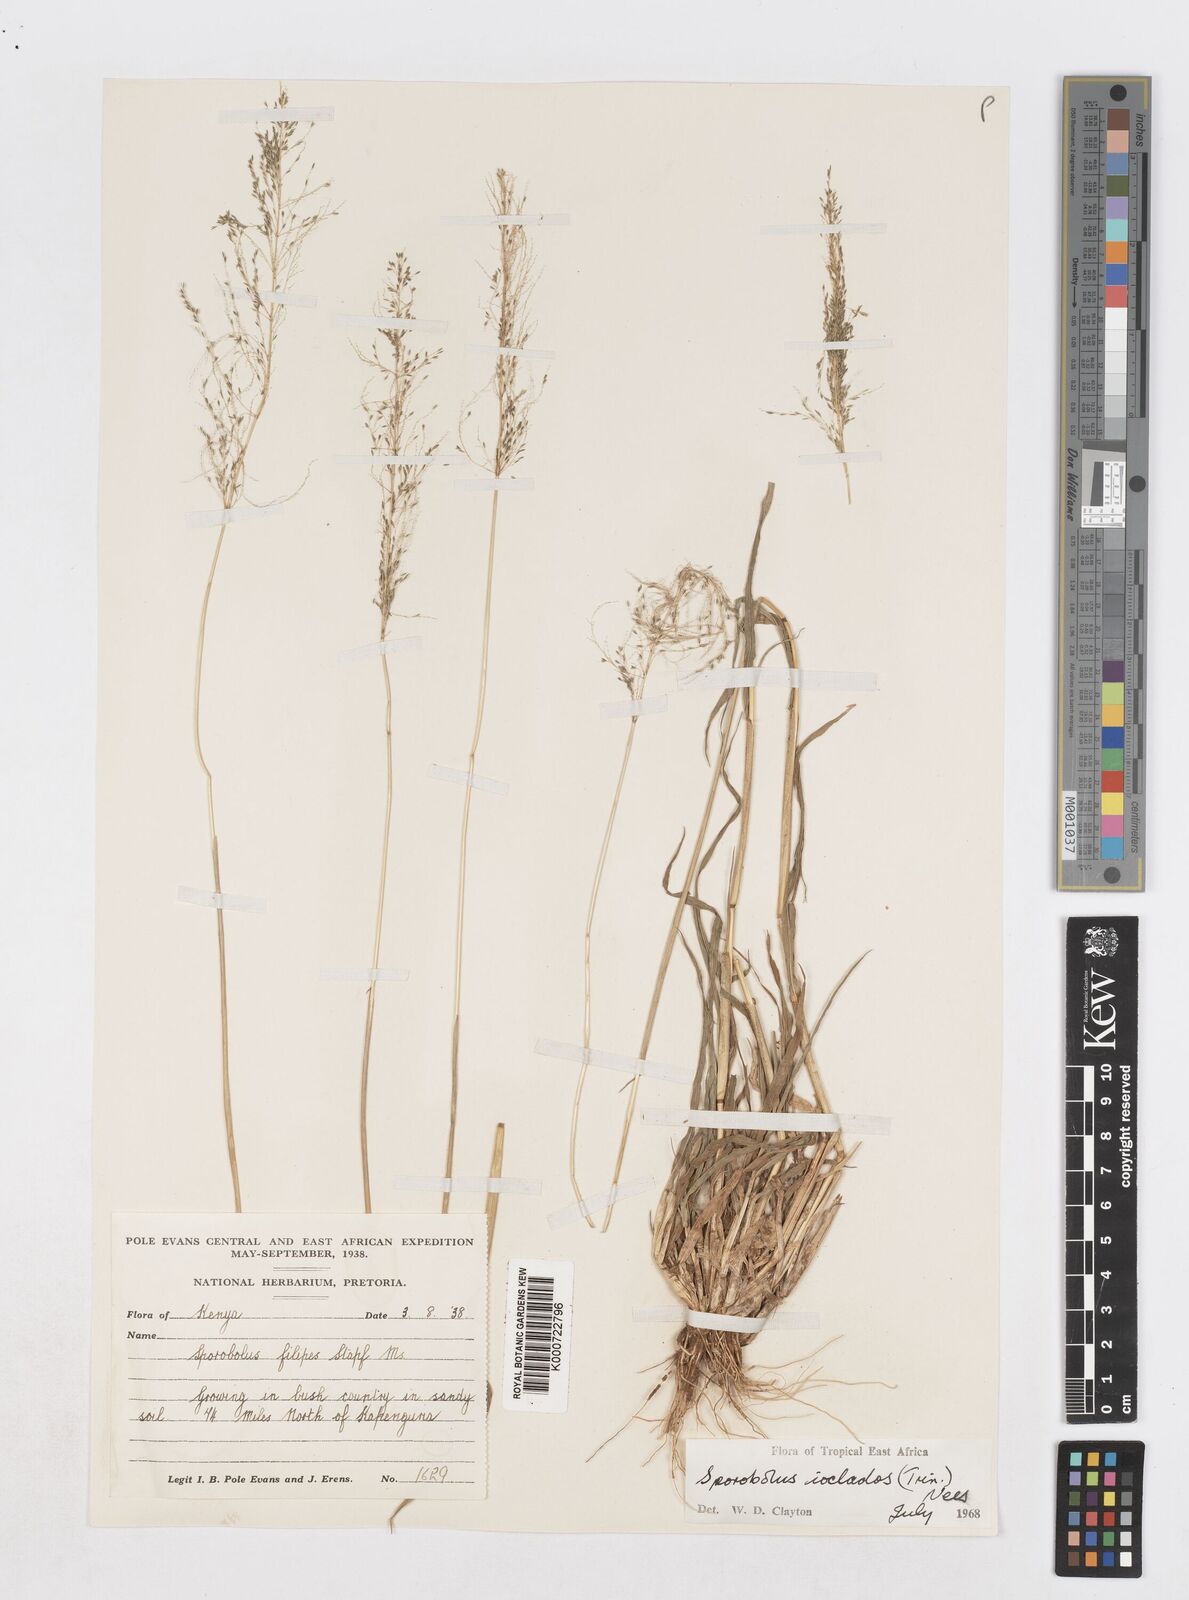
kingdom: Plantae
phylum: Tracheophyta
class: Liliopsida
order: Poales
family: Poaceae
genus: Sporobolus
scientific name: Sporobolus ioclados
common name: Pan dropseed
